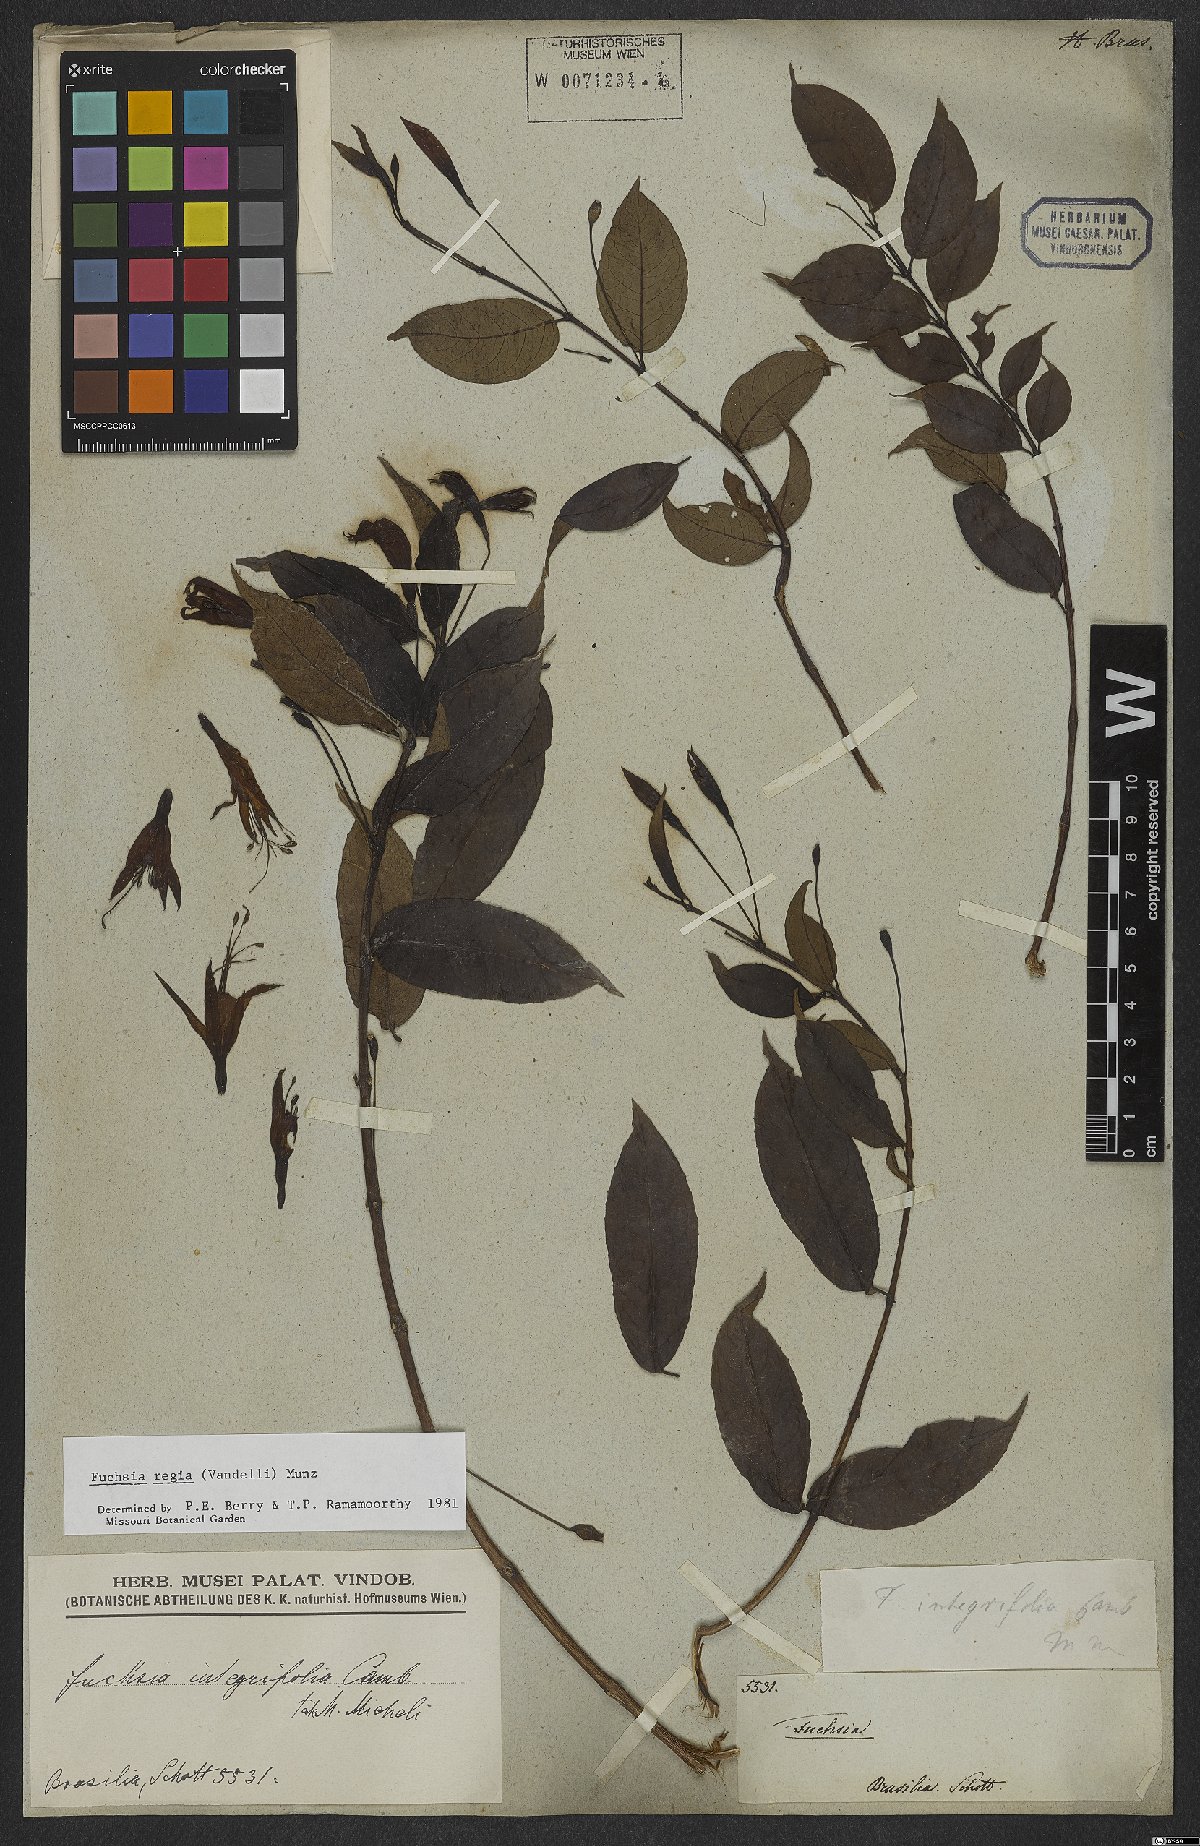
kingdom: Plantae
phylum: Tracheophyta
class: Magnoliopsida
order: Myrtales
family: Onagraceae
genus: Fuchsia
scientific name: Fuchsia regia
